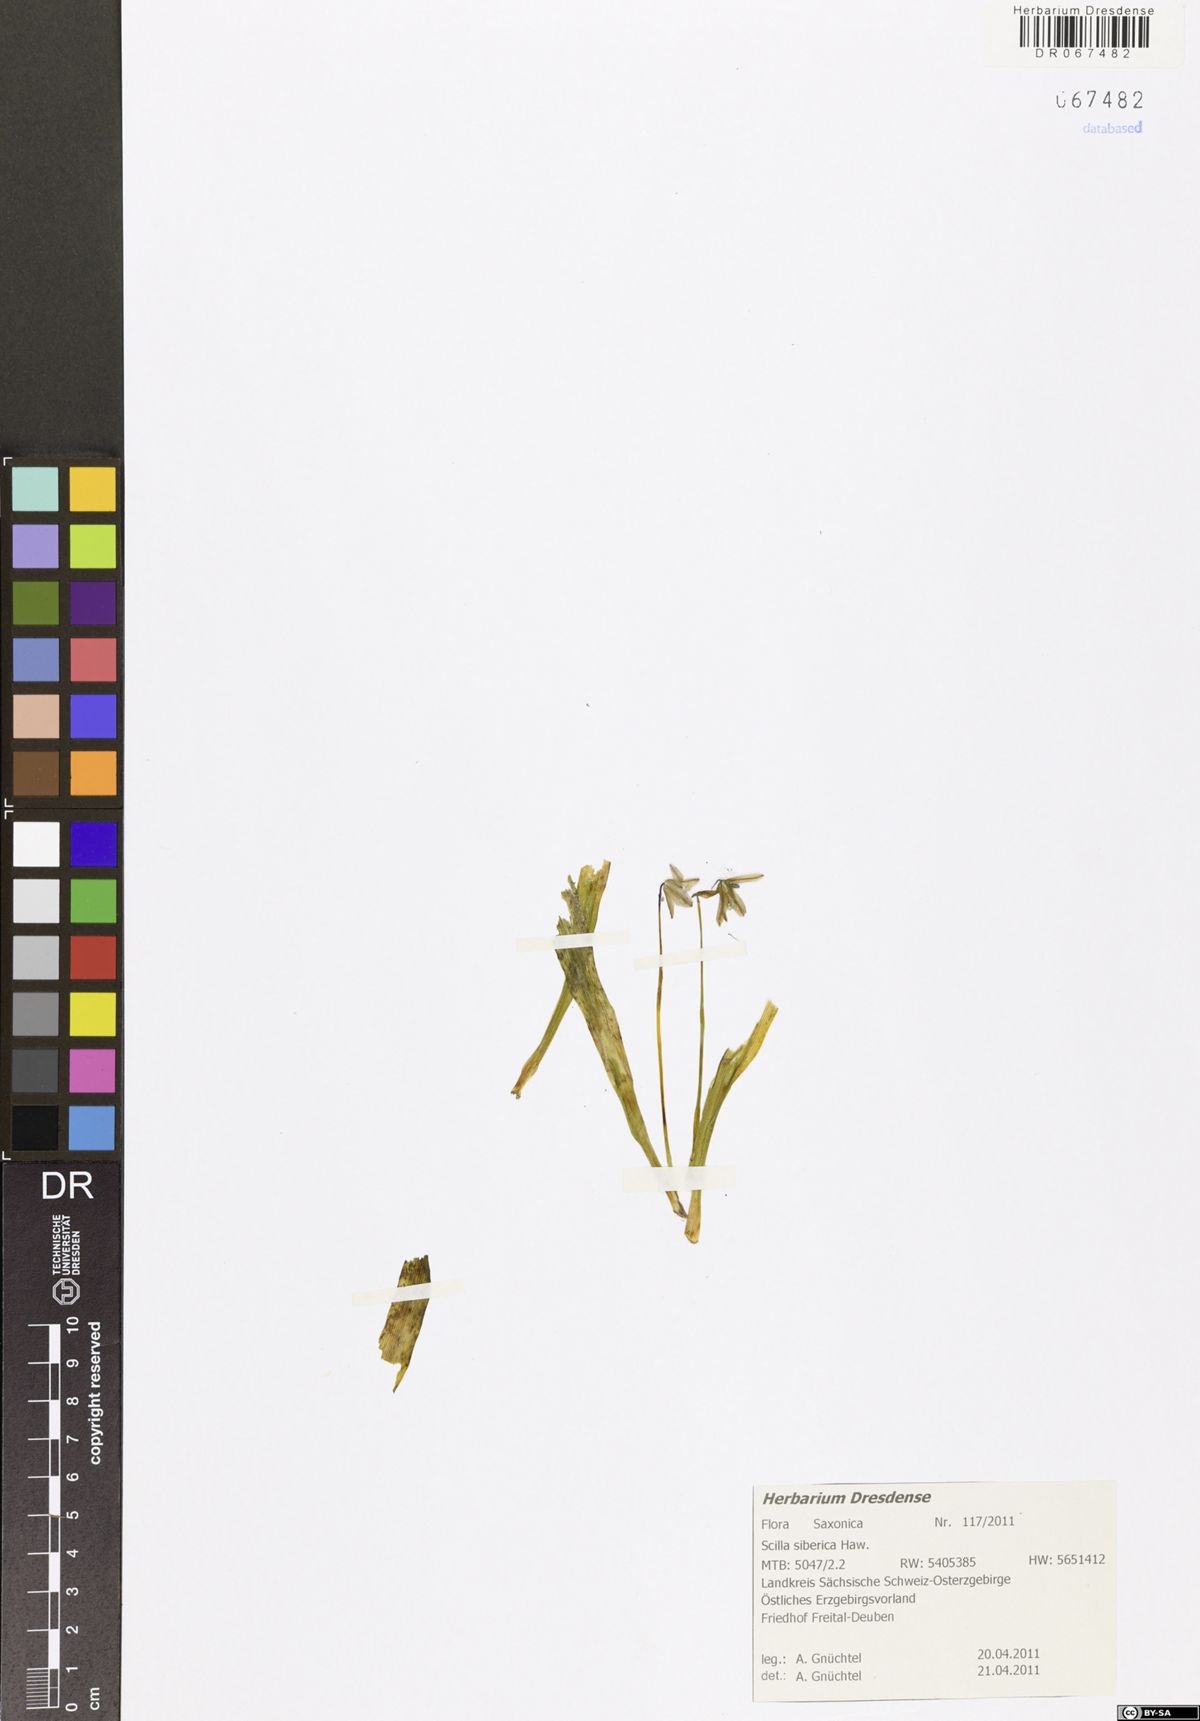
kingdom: Plantae
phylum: Tracheophyta
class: Liliopsida
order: Asparagales
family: Asparagaceae
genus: Scilla
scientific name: Scilla siberica
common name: Siberian squill
